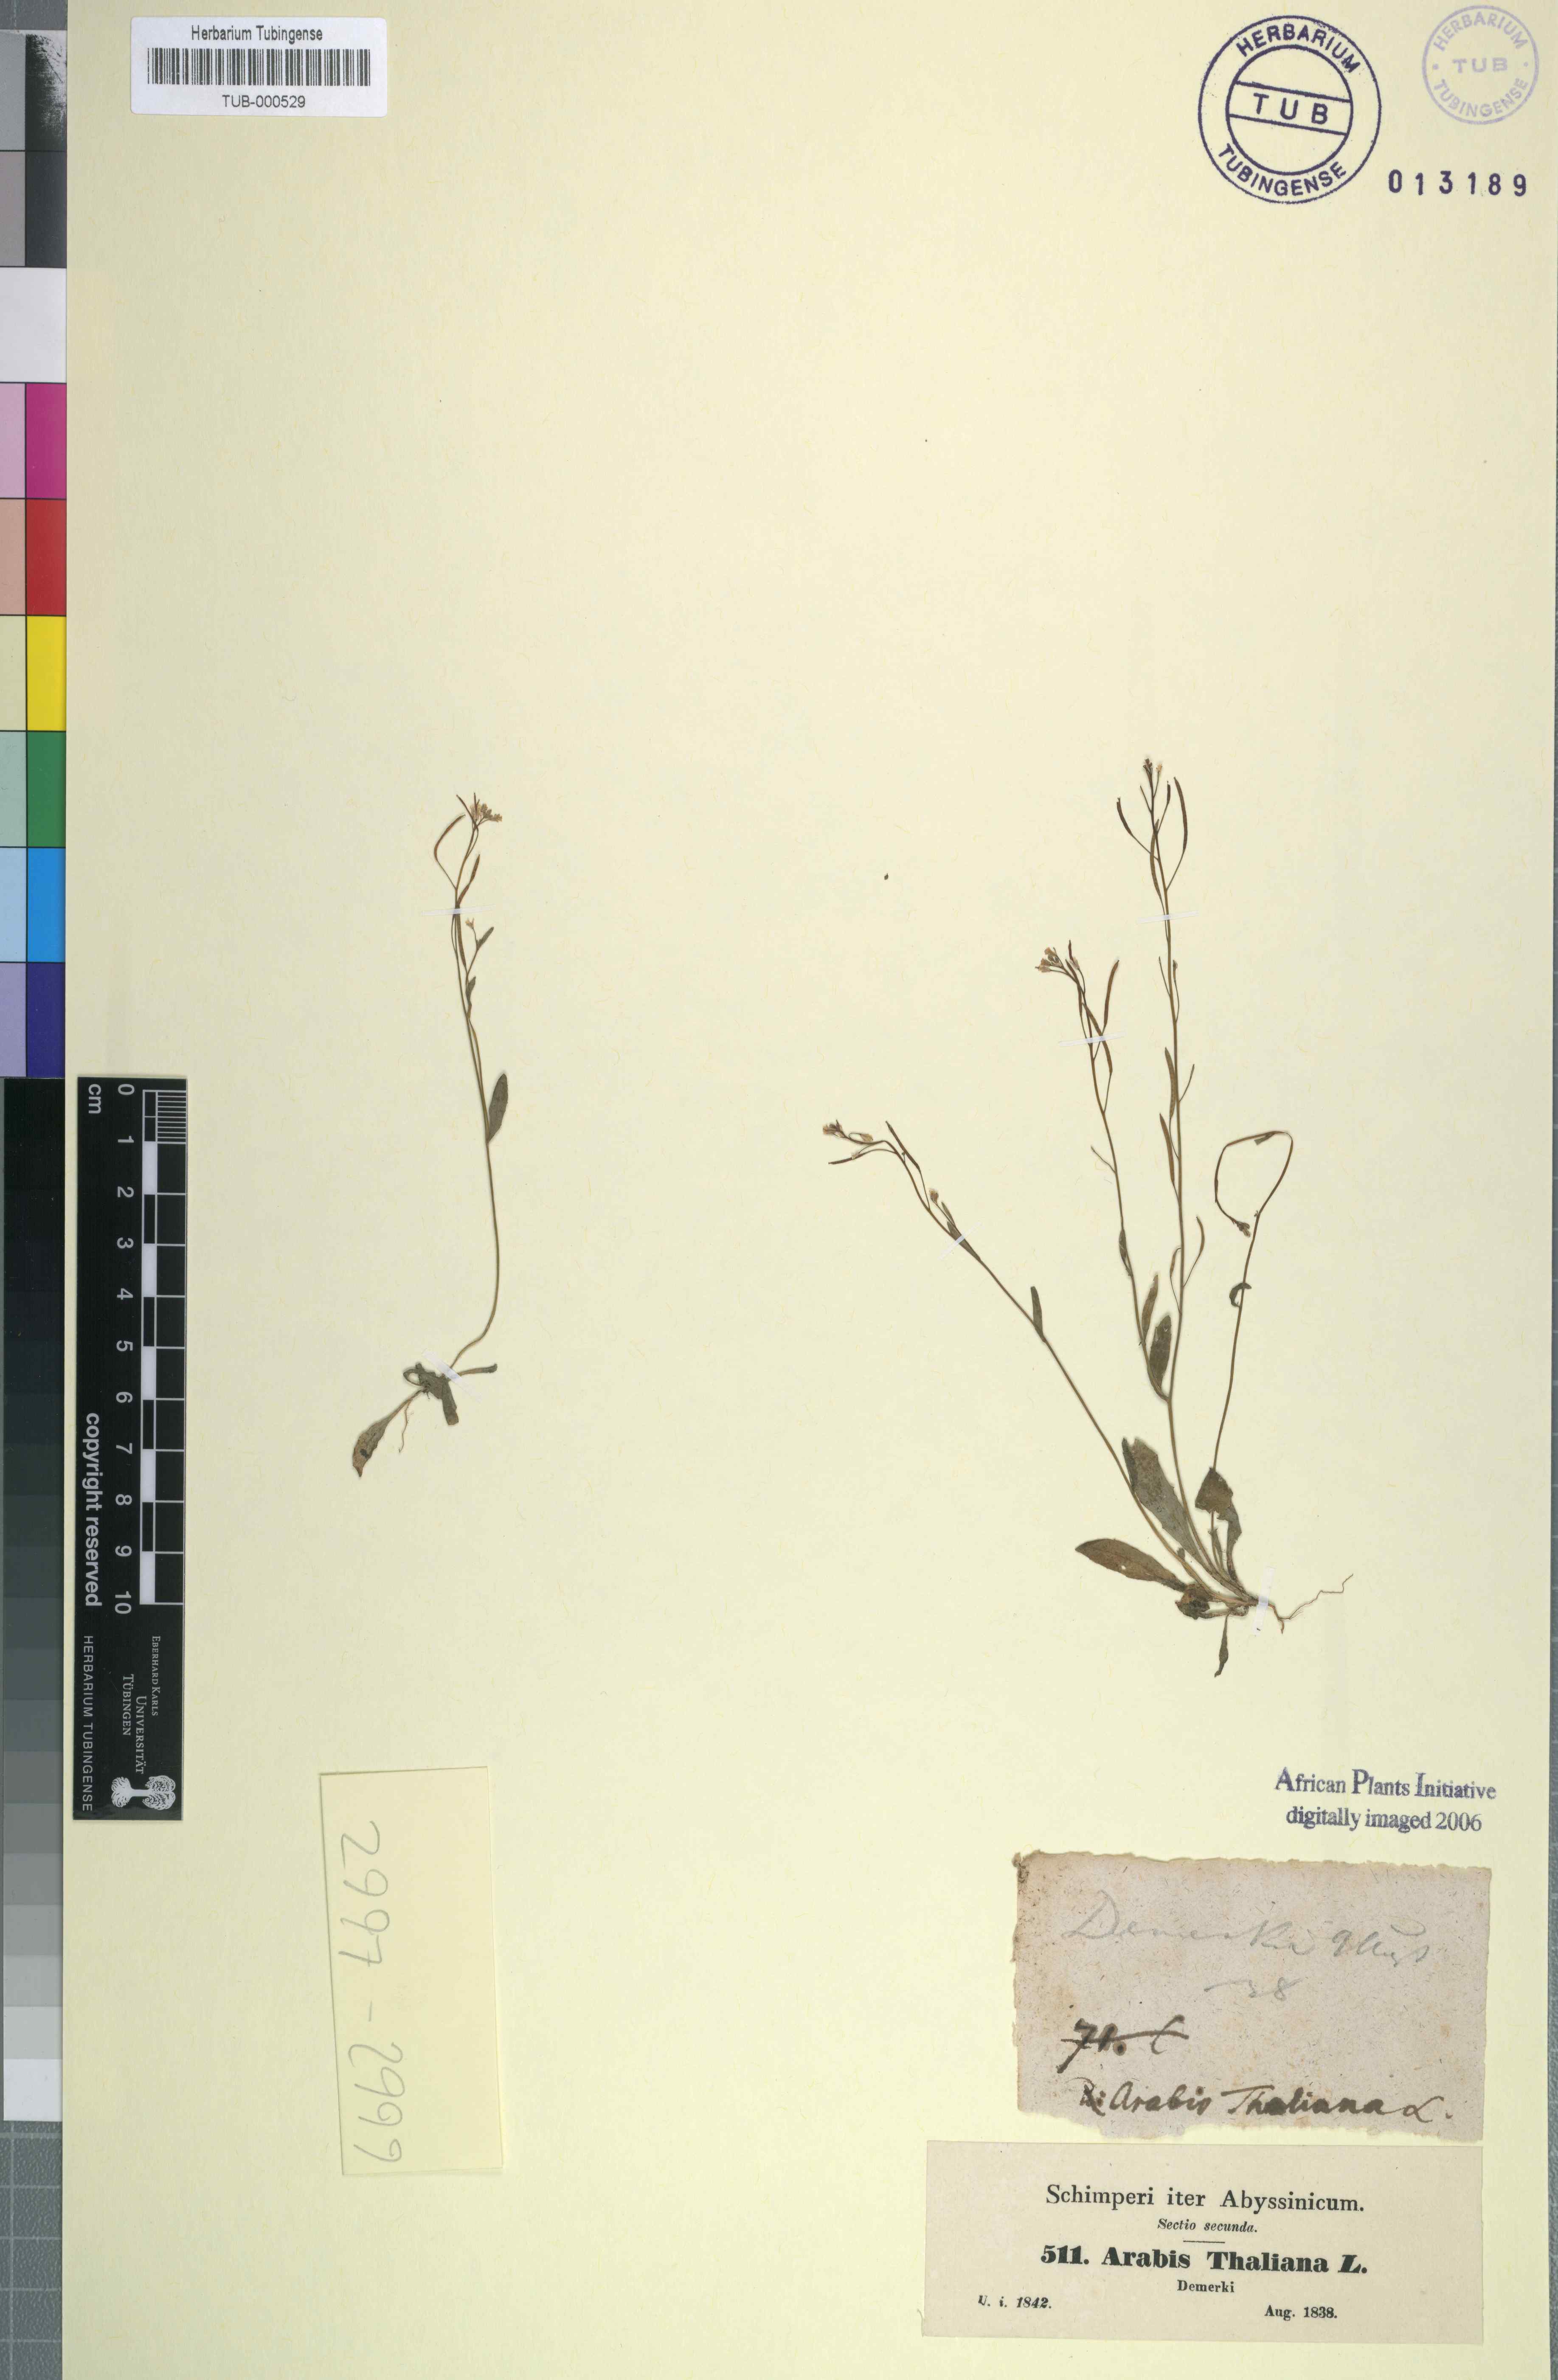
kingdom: Plantae
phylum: Tracheophyta
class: Magnoliopsida
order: Brassicales
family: Brassicaceae
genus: Arabidopsis
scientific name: Arabidopsis thaliana
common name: Thale cress
